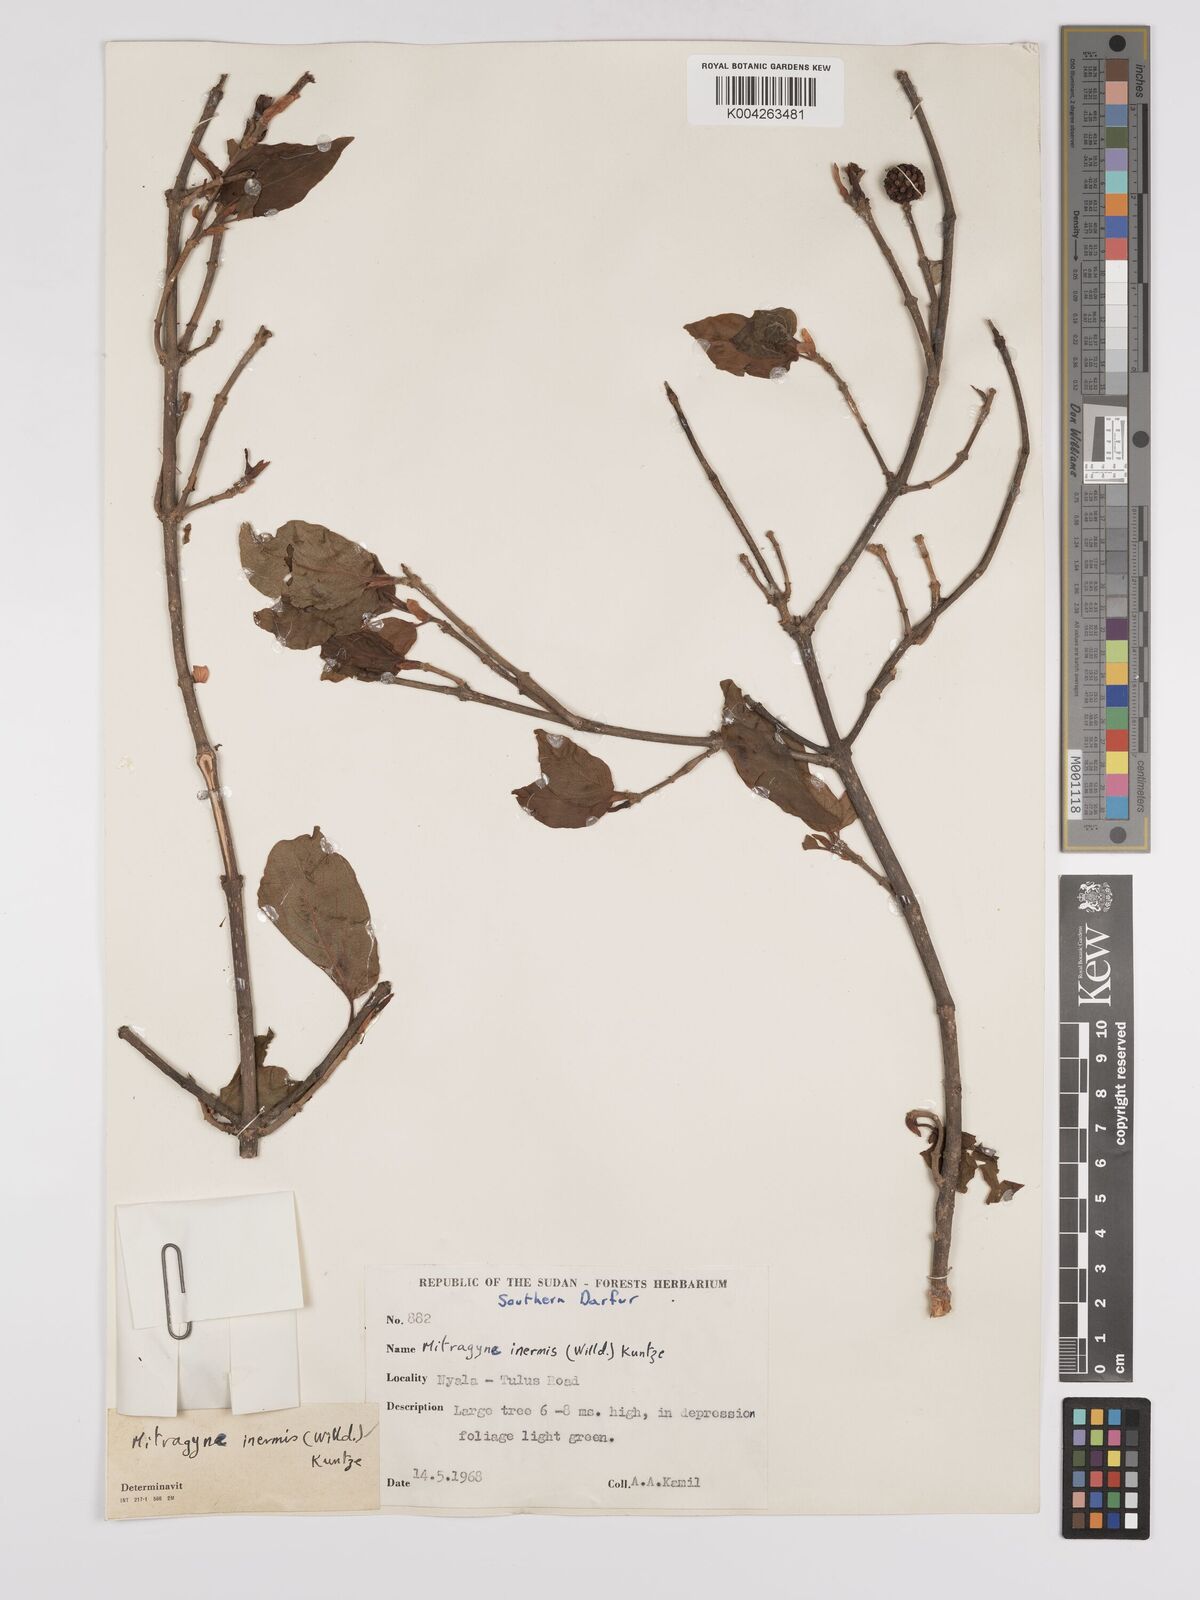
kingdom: Plantae
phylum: Tracheophyta
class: Magnoliopsida
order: Gentianales
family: Rubiaceae
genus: Mitragyna
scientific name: Mitragyna inermis
